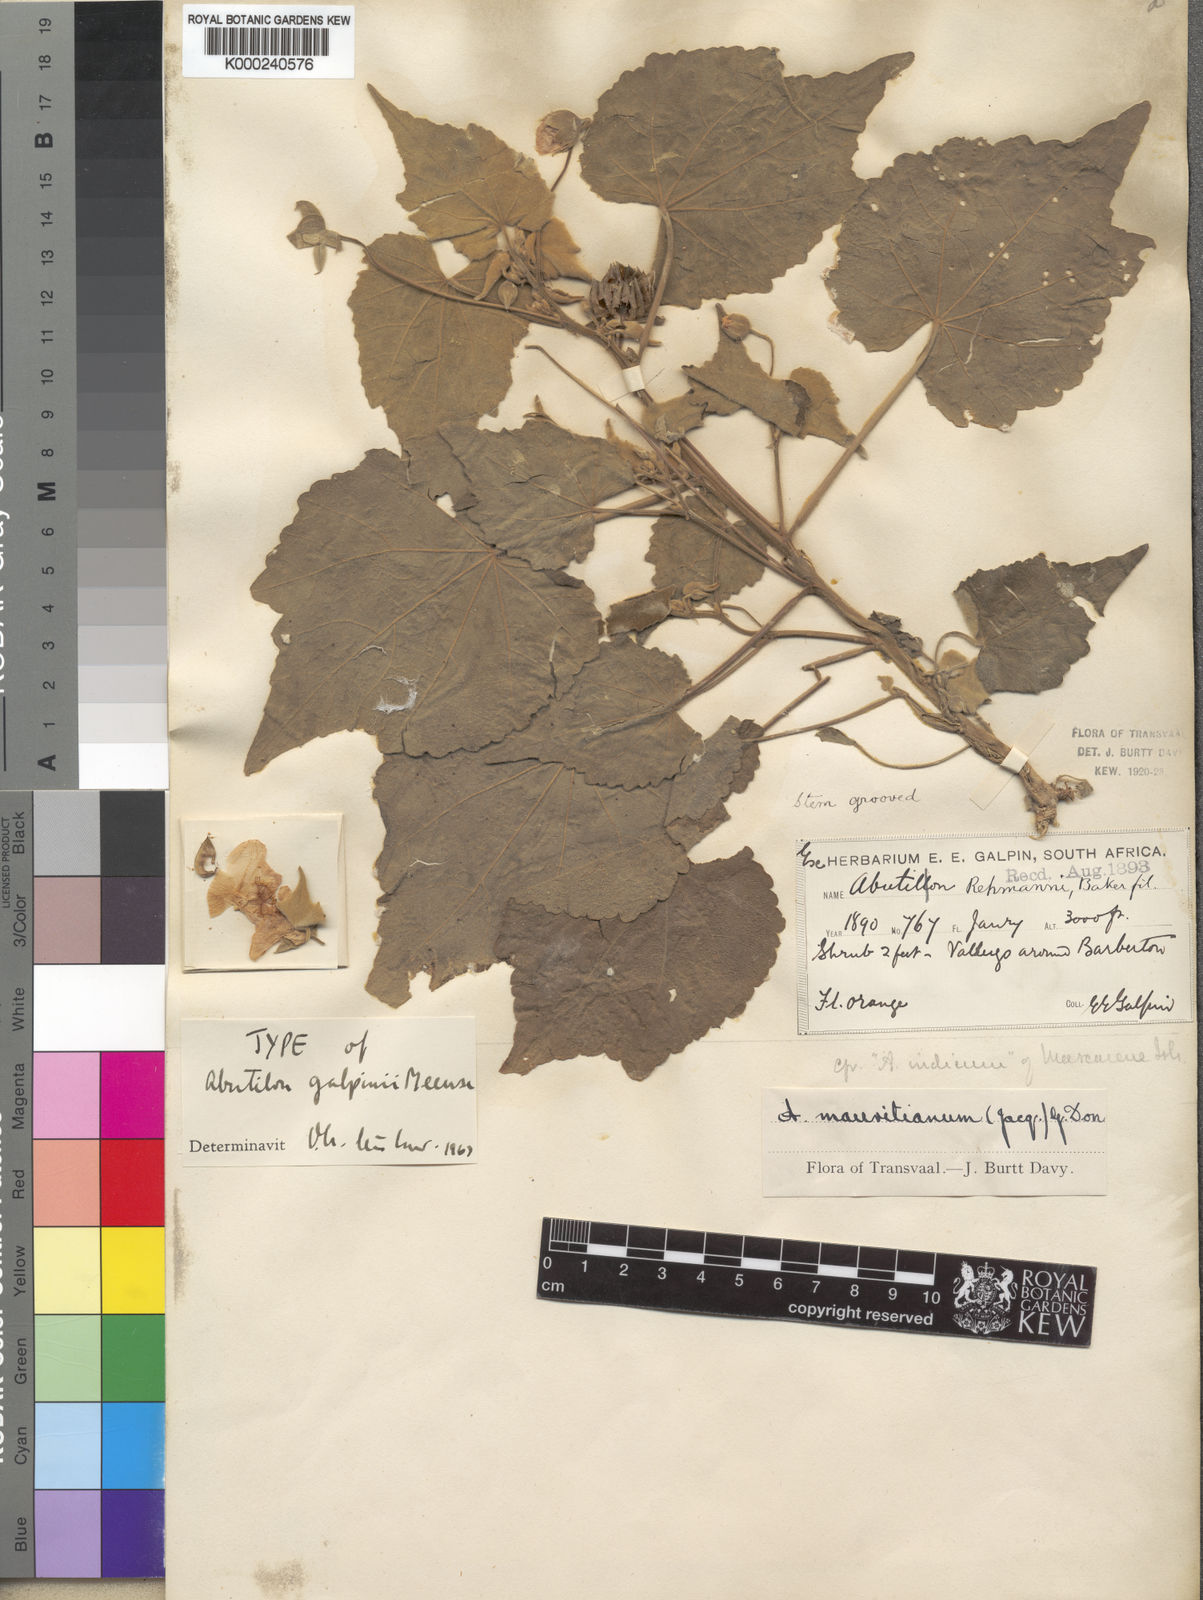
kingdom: Plantae
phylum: Tracheophyta
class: Magnoliopsida
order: Malvales
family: Malvaceae
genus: Abutilon
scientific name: Abutilon galpinii
